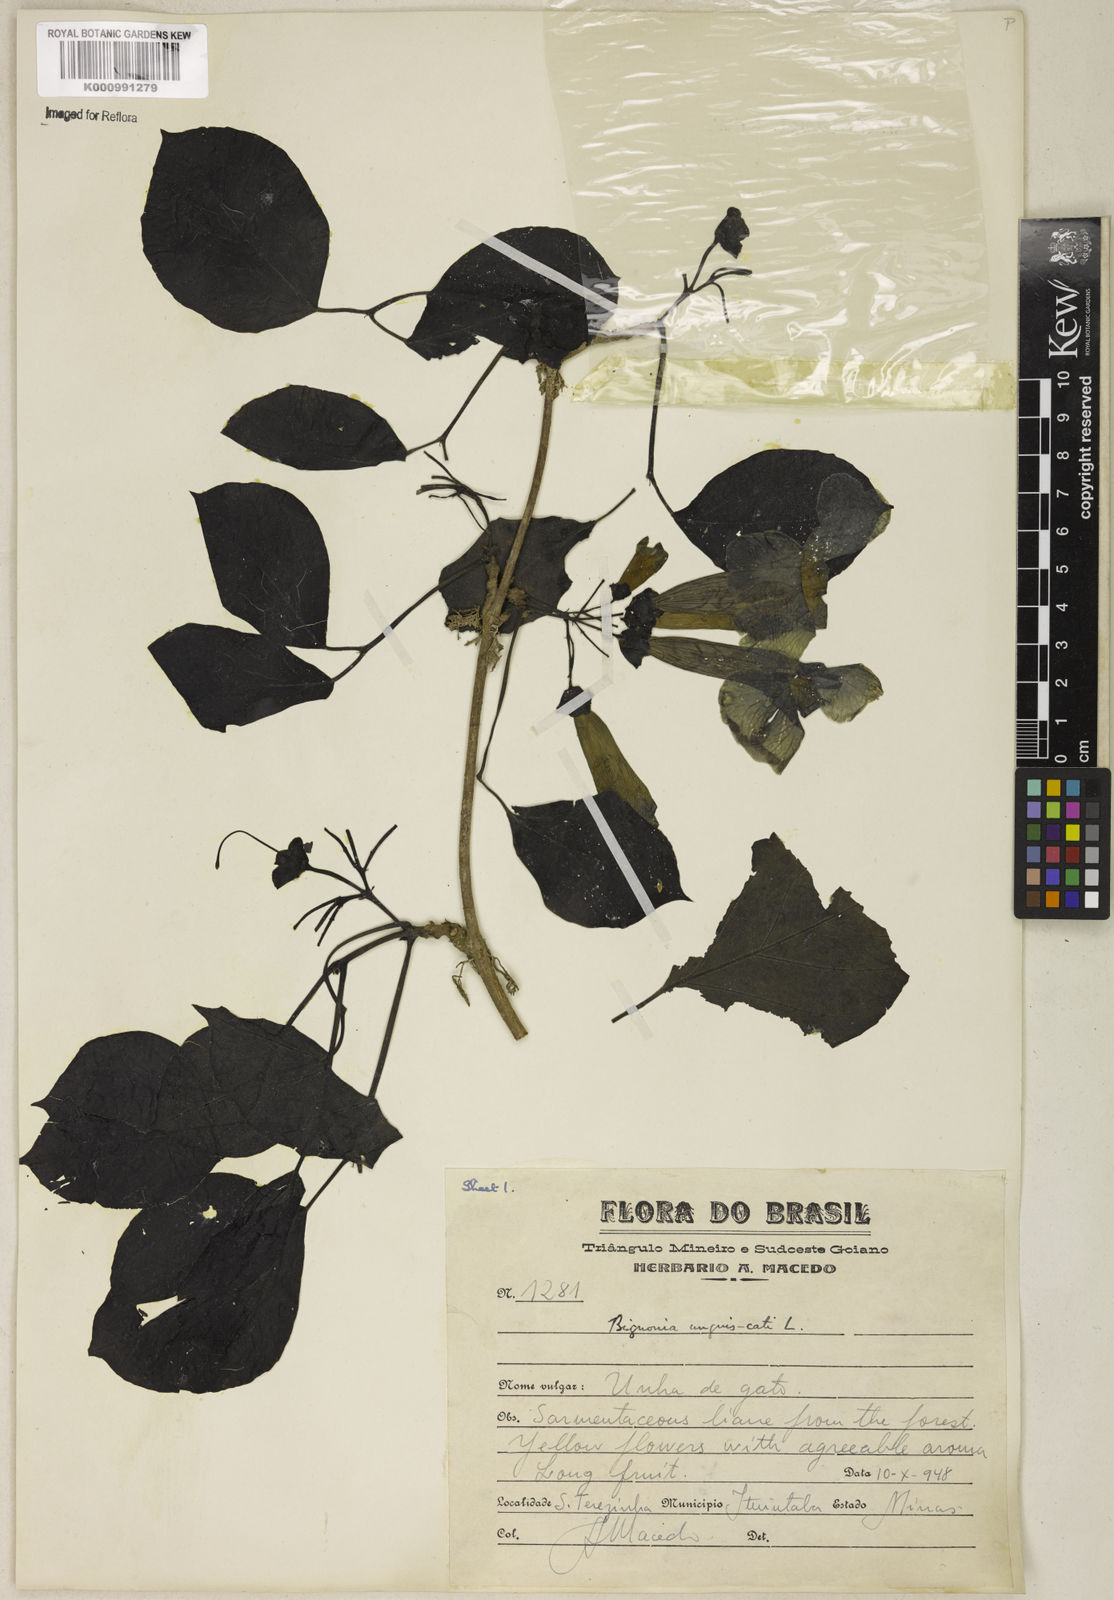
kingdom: Plantae
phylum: Tracheophyta
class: Magnoliopsida
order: Lamiales
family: Bignoniaceae
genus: Dolichandra
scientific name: Dolichandra unguis-cati
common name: Catclaw vine
